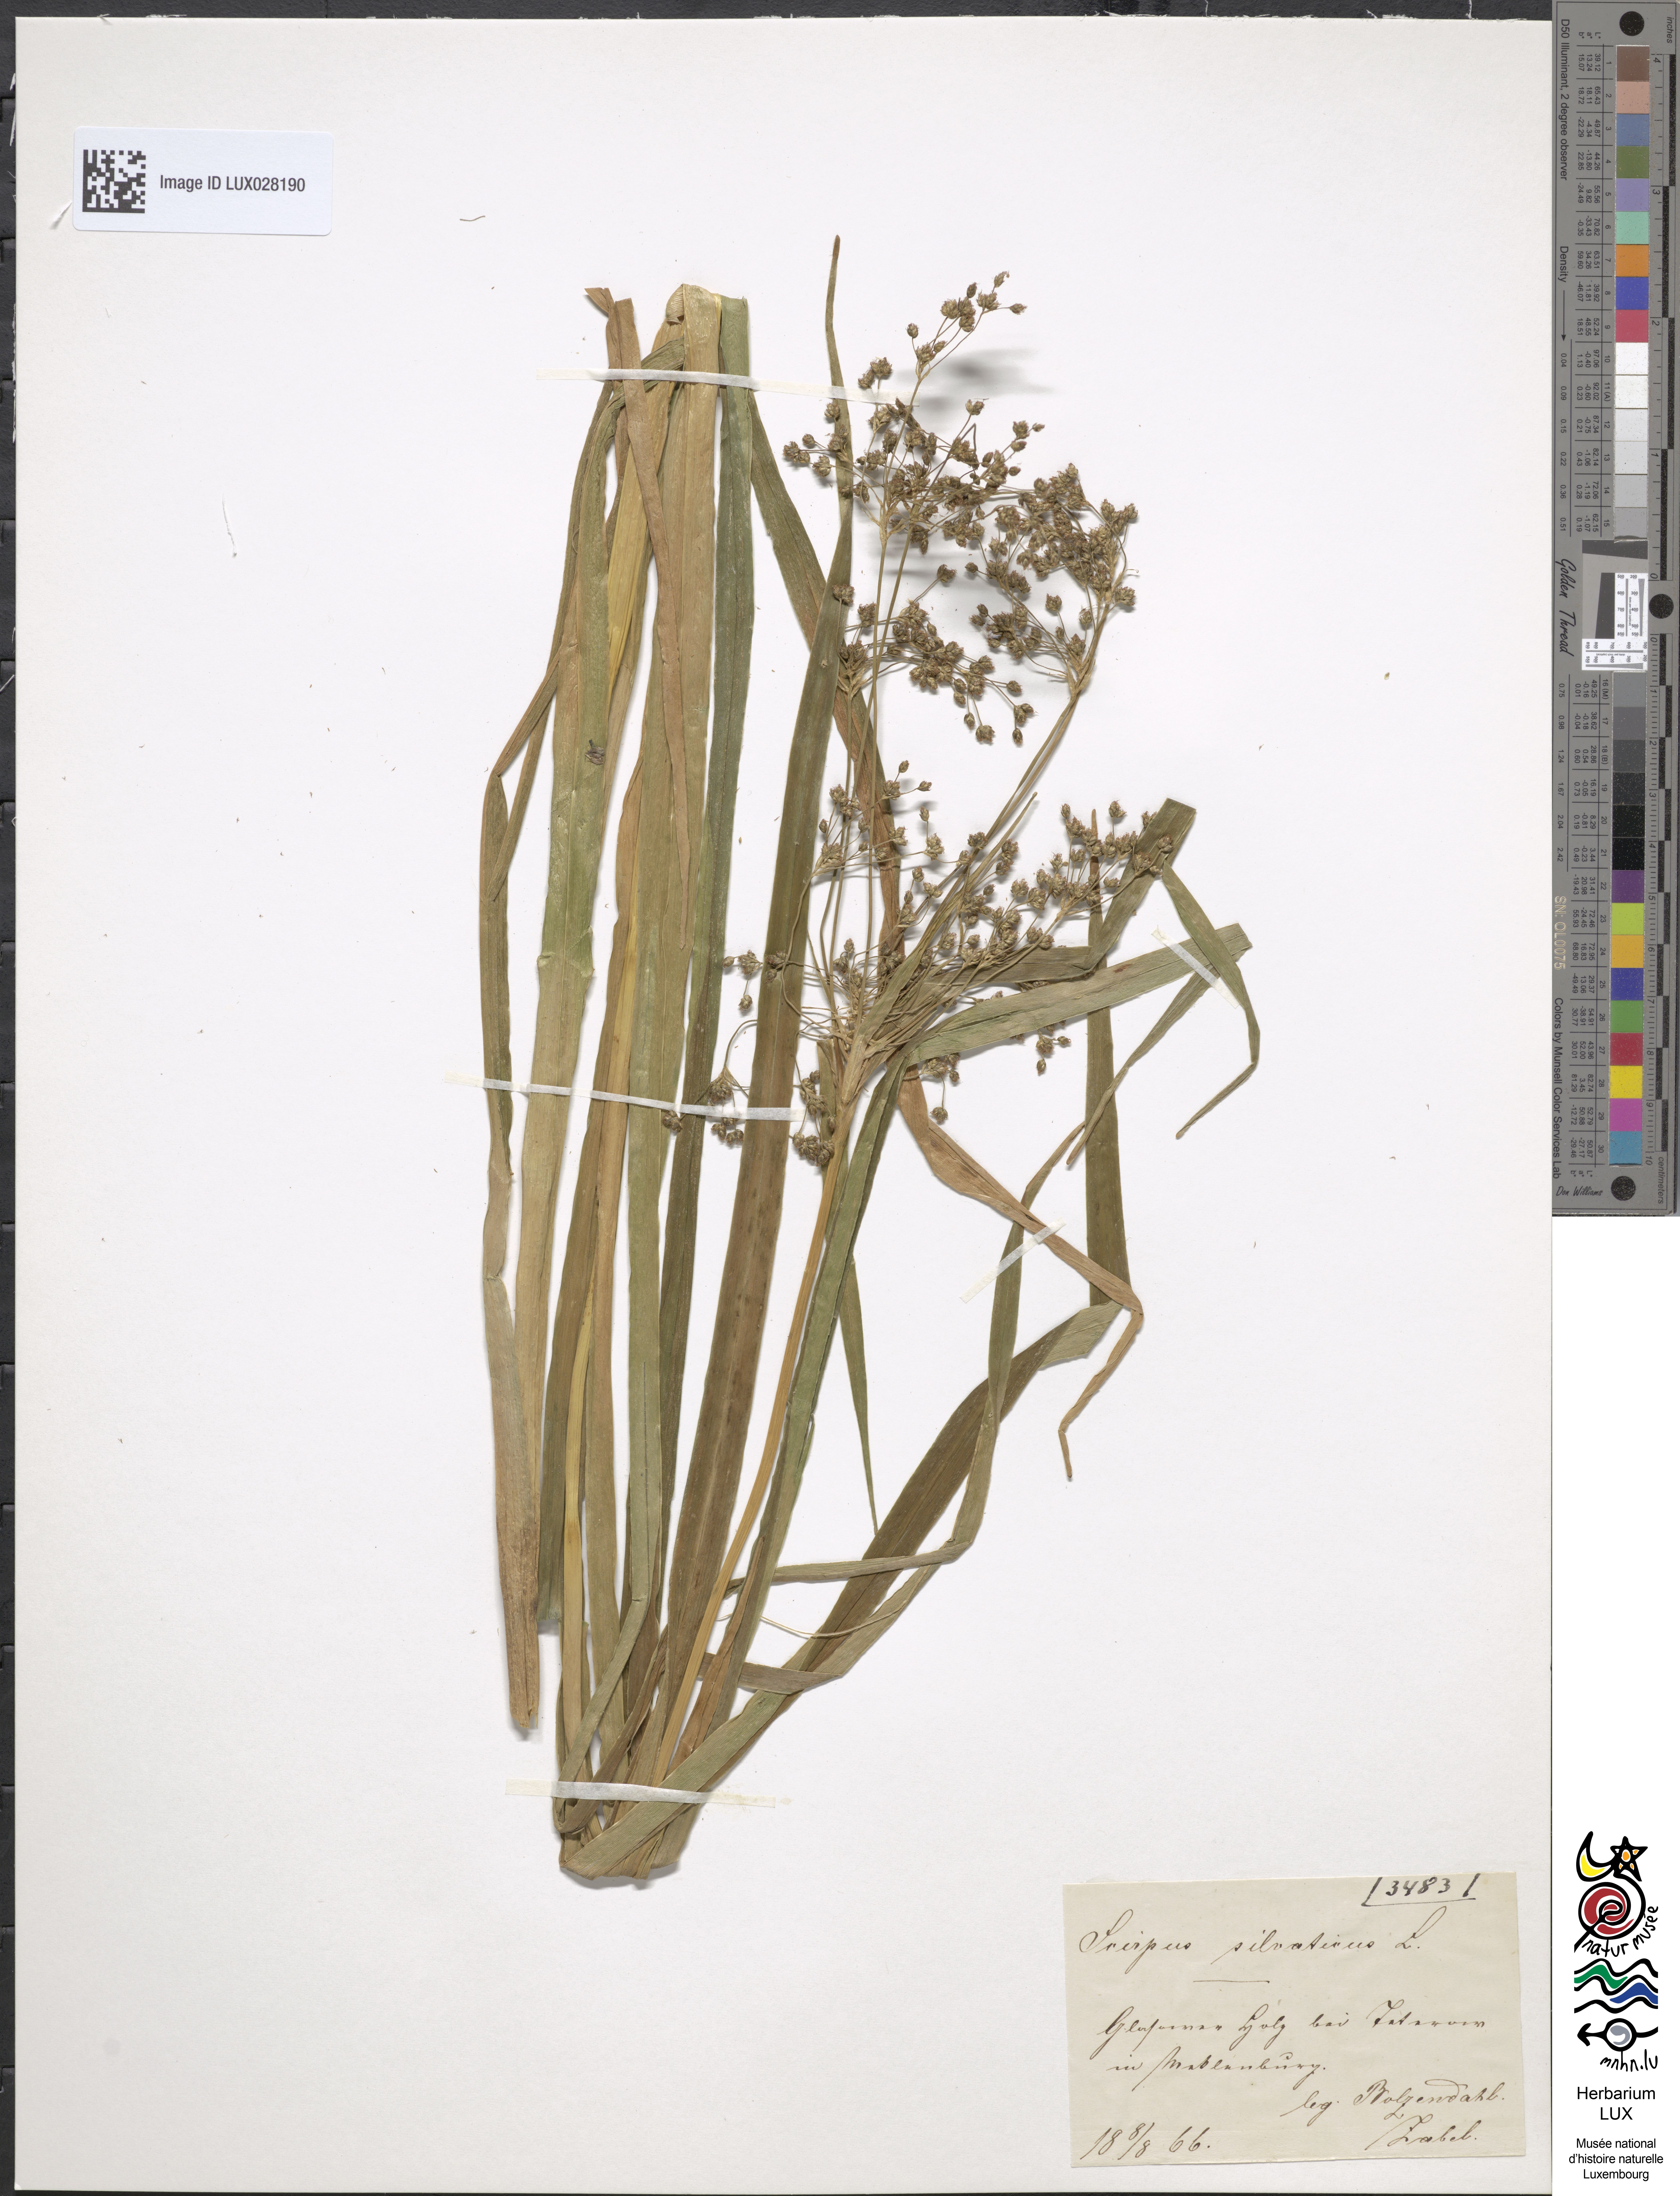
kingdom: Plantae
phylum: Tracheophyta
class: Liliopsida
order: Poales
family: Cyperaceae
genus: Scirpus
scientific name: Scirpus sylvaticus
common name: Wood club-rush
